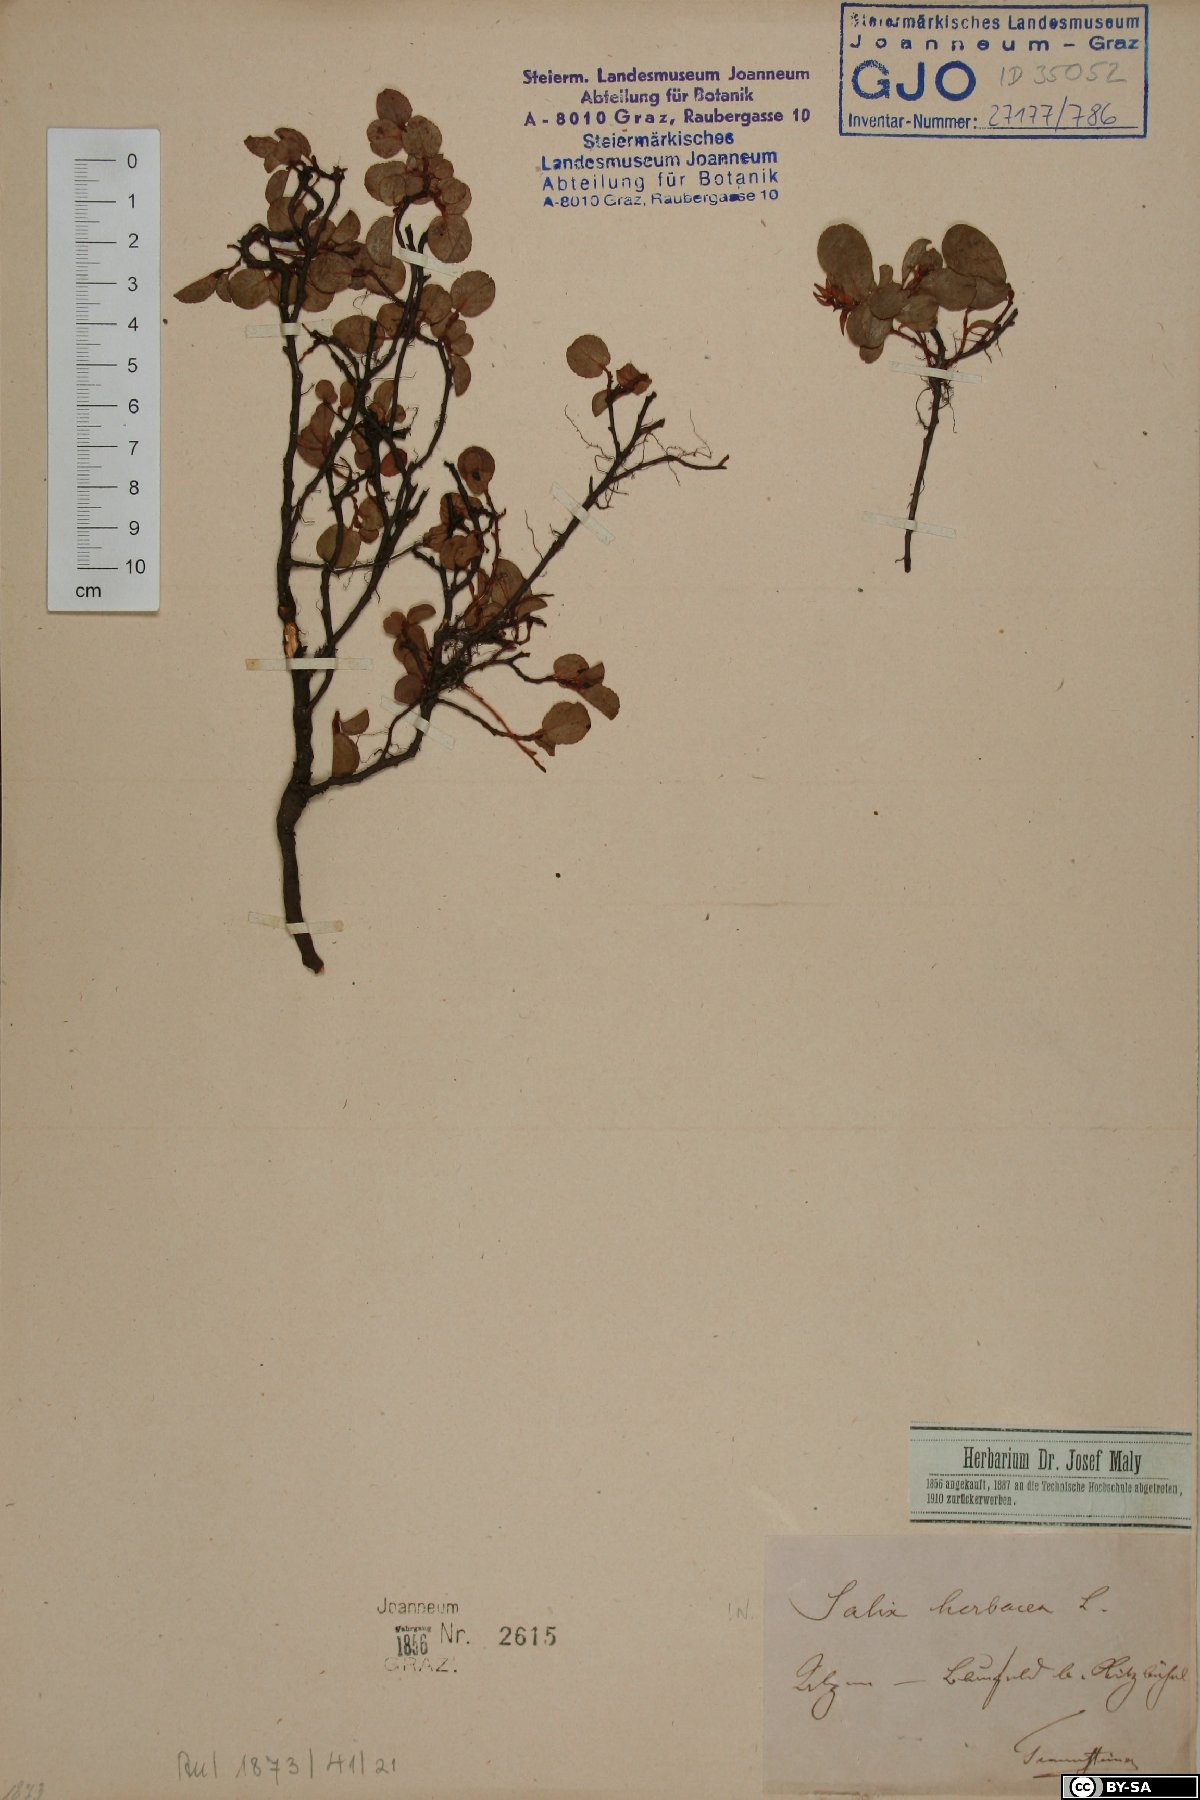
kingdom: Plantae
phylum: Tracheophyta
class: Magnoliopsida
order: Malpighiales
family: Salicaceae
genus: Salix
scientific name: Salix herbacea
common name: Dwarf willow
